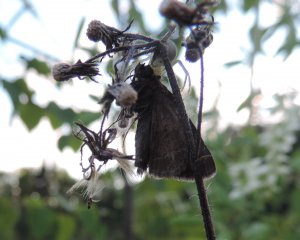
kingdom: Animalia
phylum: Arthropoda
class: Insecta
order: Lepidoptera
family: Hesperiidae
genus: Euphyes
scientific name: Euphyes vestris
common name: Dun Skipper
